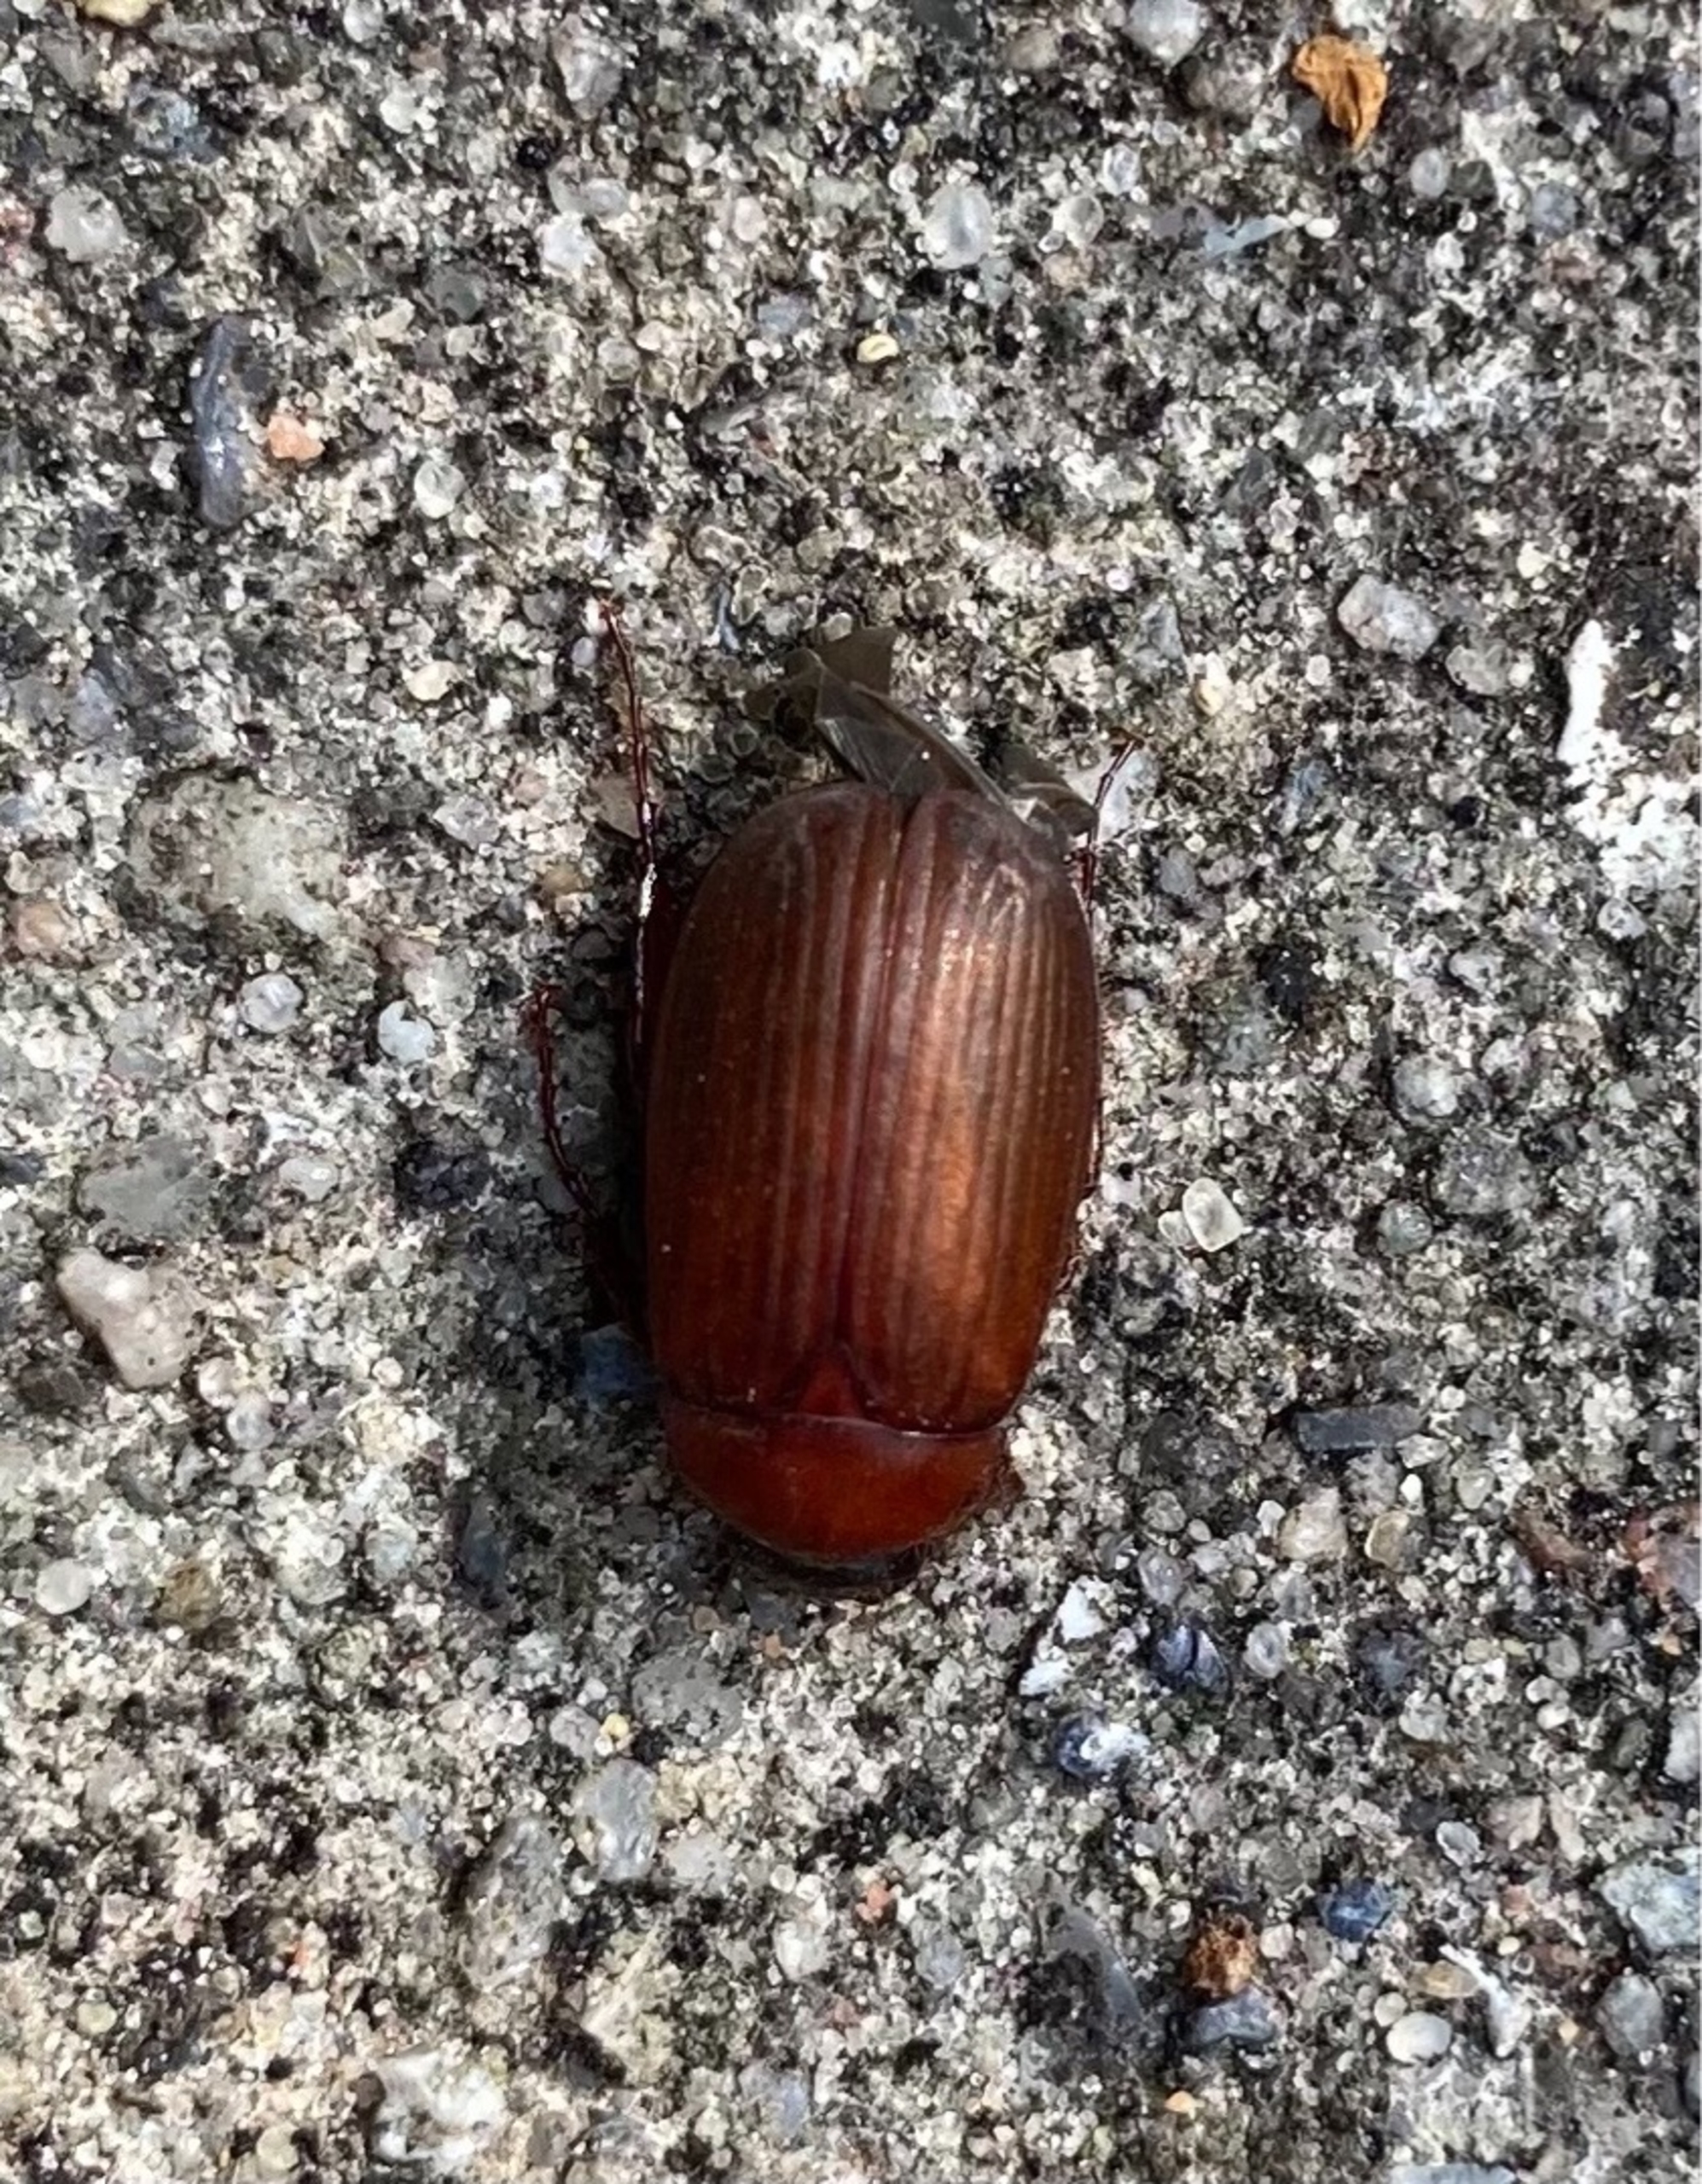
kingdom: Animalia
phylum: Arthropoda
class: Insecta
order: Coleoptera
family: Scarabaeidae
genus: Serica
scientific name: Serica brunnea
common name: Natoldenborre
